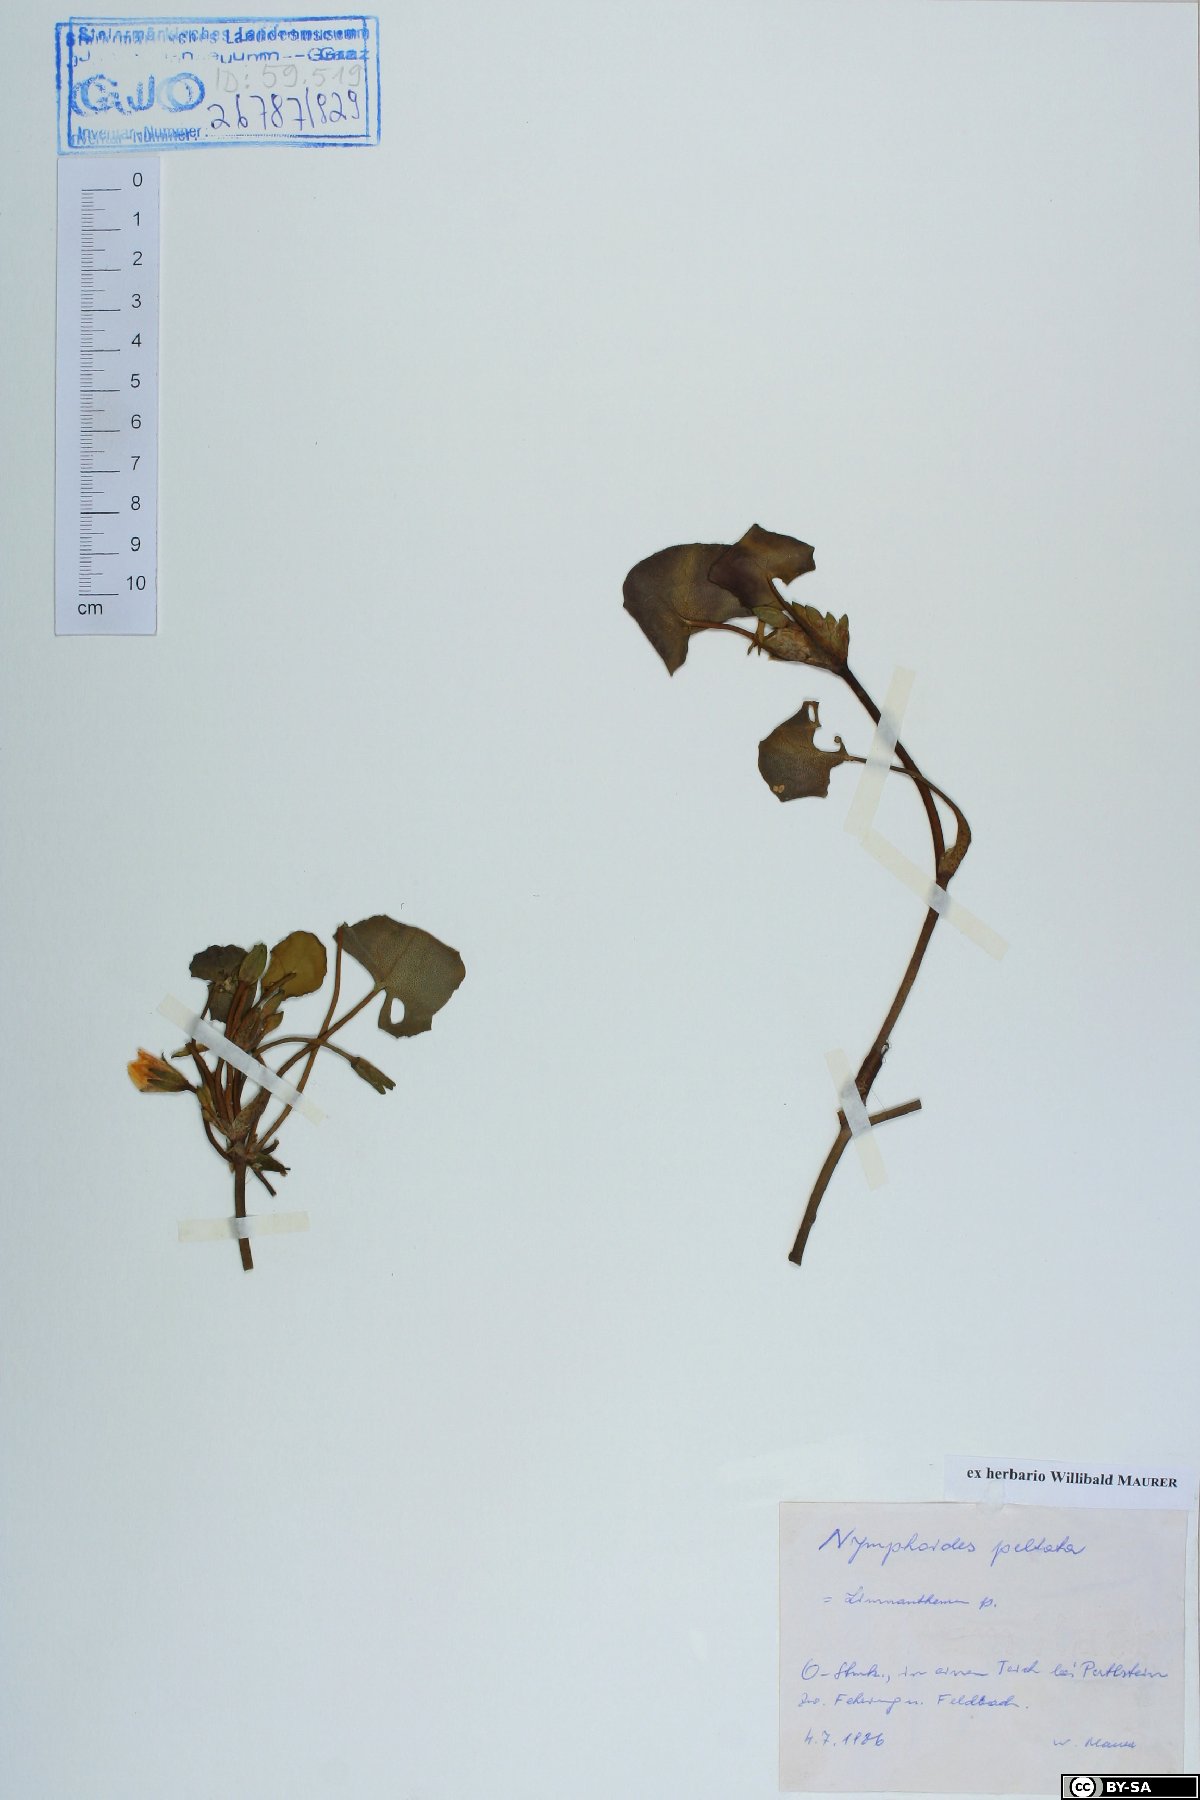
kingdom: Plantae
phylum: Tracheophyta
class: Magnoliopsida
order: Asterales
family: Menyanthaceae
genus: Nymphoides
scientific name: Nymphoides peltata
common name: Fringed water-lily
